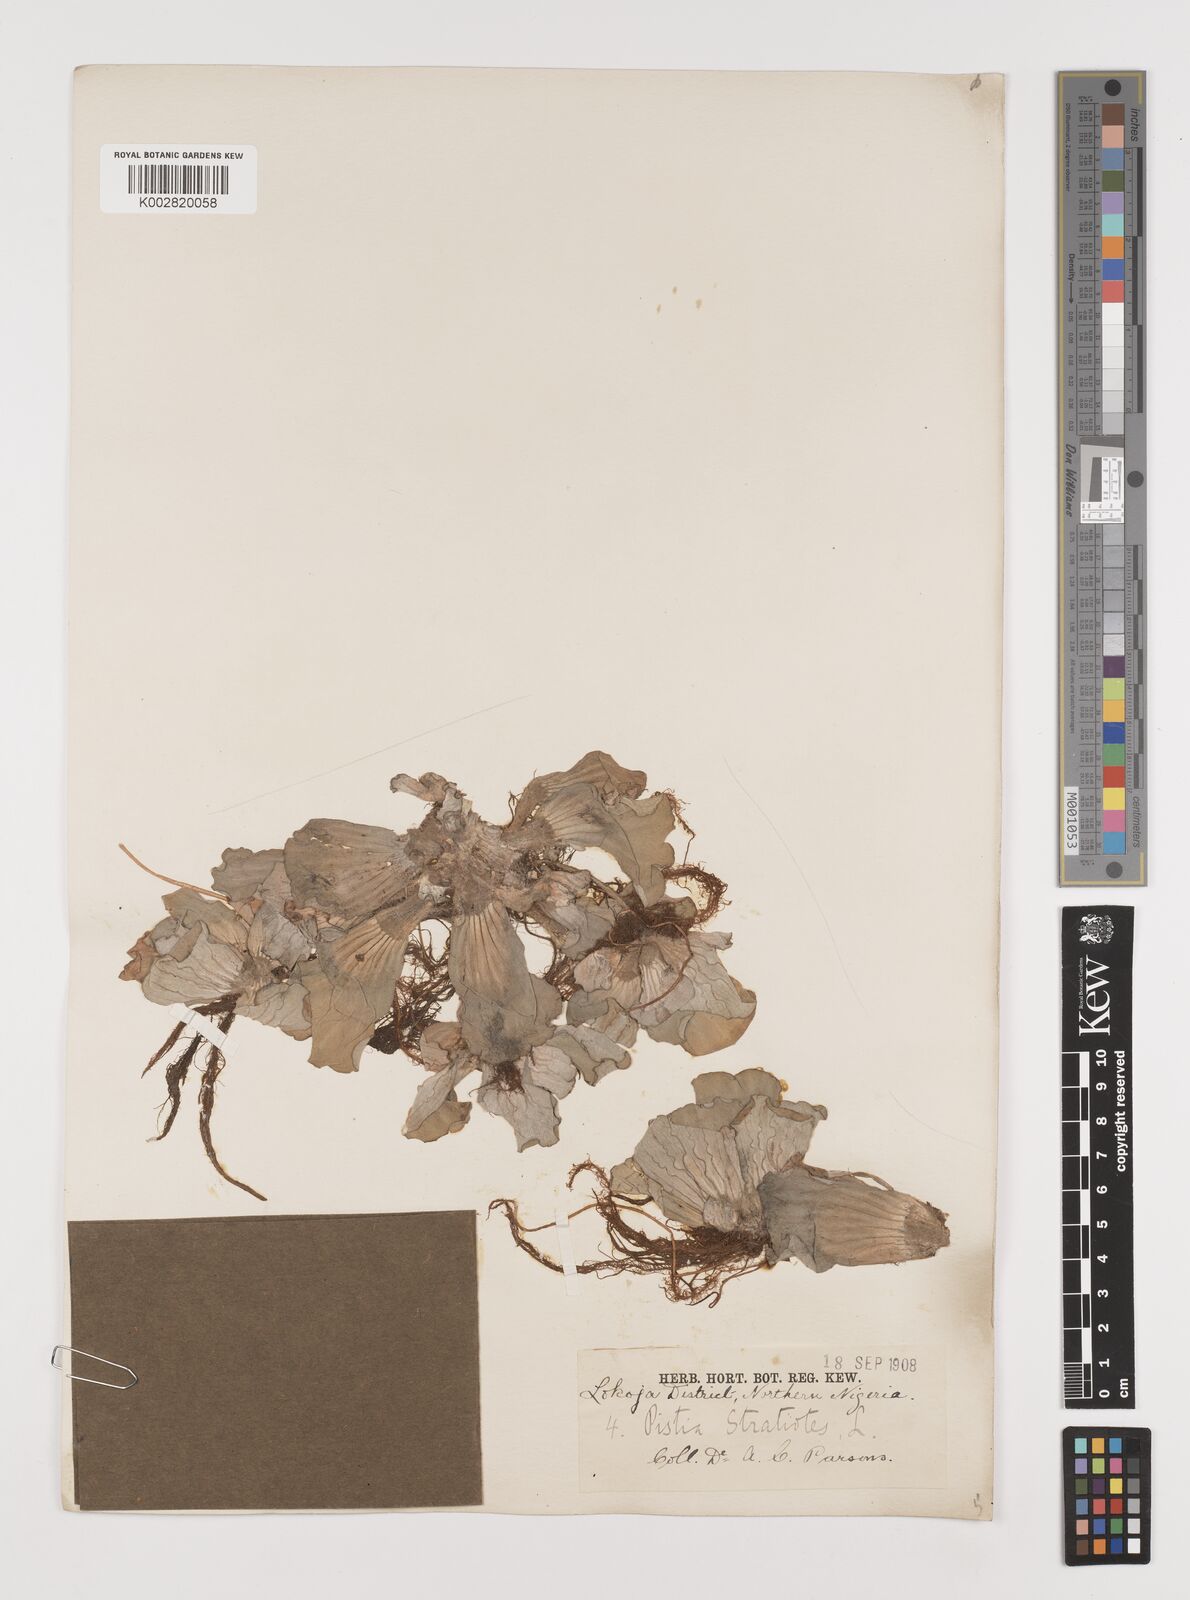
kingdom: Plantae
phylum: Tracheophyta
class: Liliopsida
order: Alismatales
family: Araceae
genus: Pistia
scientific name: Pistia stratiotes
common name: Water lettuce
